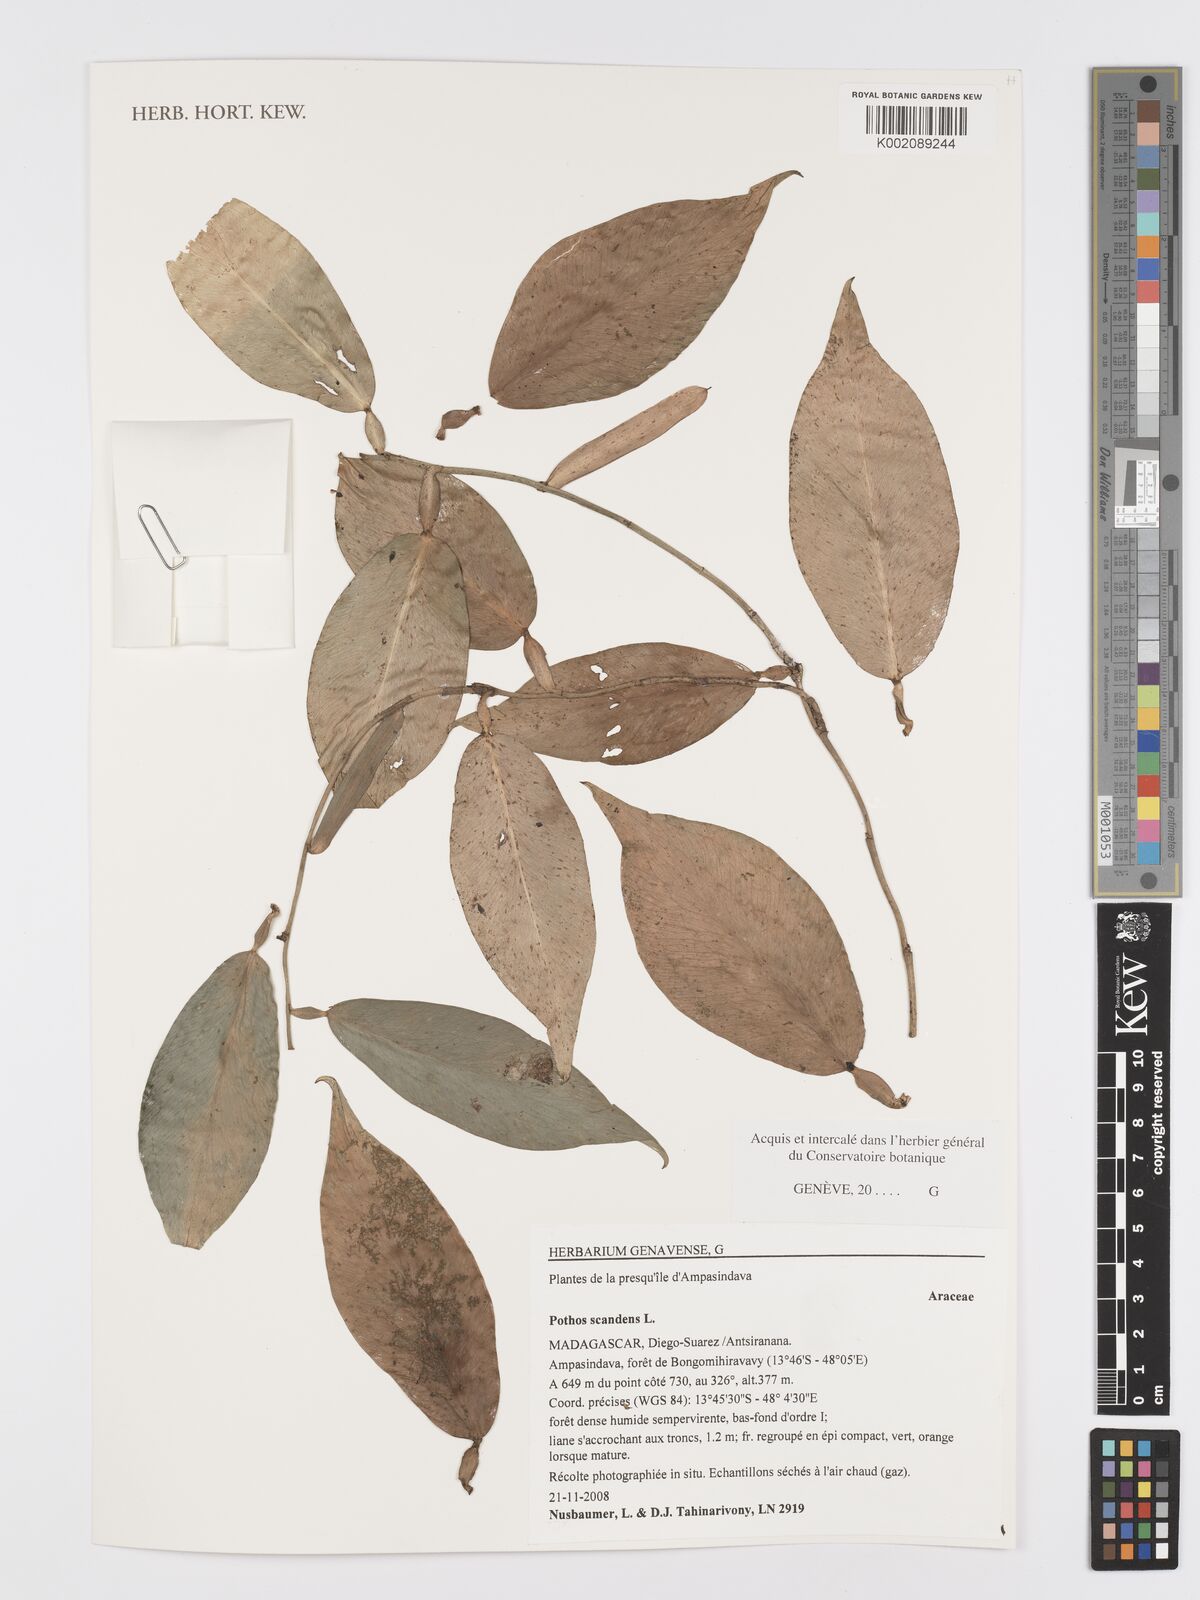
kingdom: Plantae
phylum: Tracheophyta
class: Liliopsida
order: Alismatales
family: Araceae
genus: Pothos
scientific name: Pothos scandens
